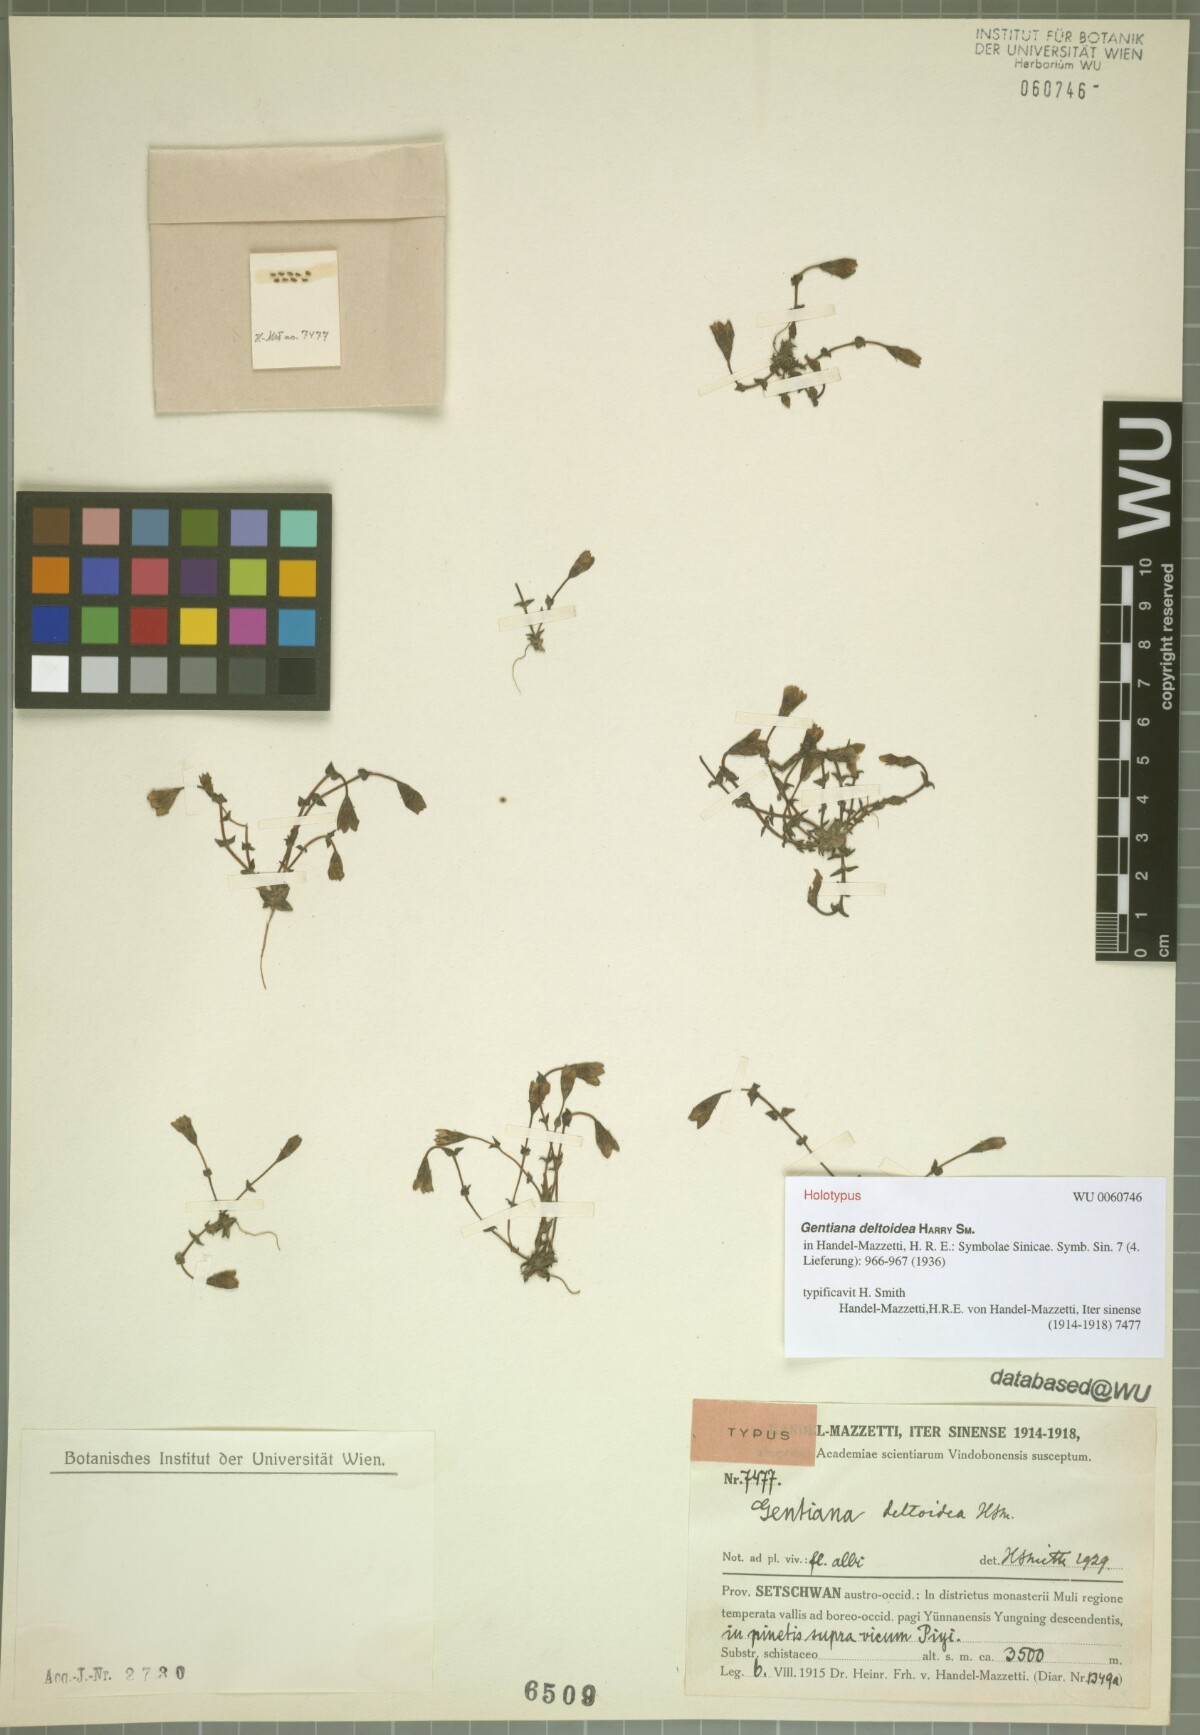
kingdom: Plantae
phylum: Tracheophyta
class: Magnoliopsida
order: Gentianales
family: Gentianaceae
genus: Gentiana
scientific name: Gentiana deltoidea
